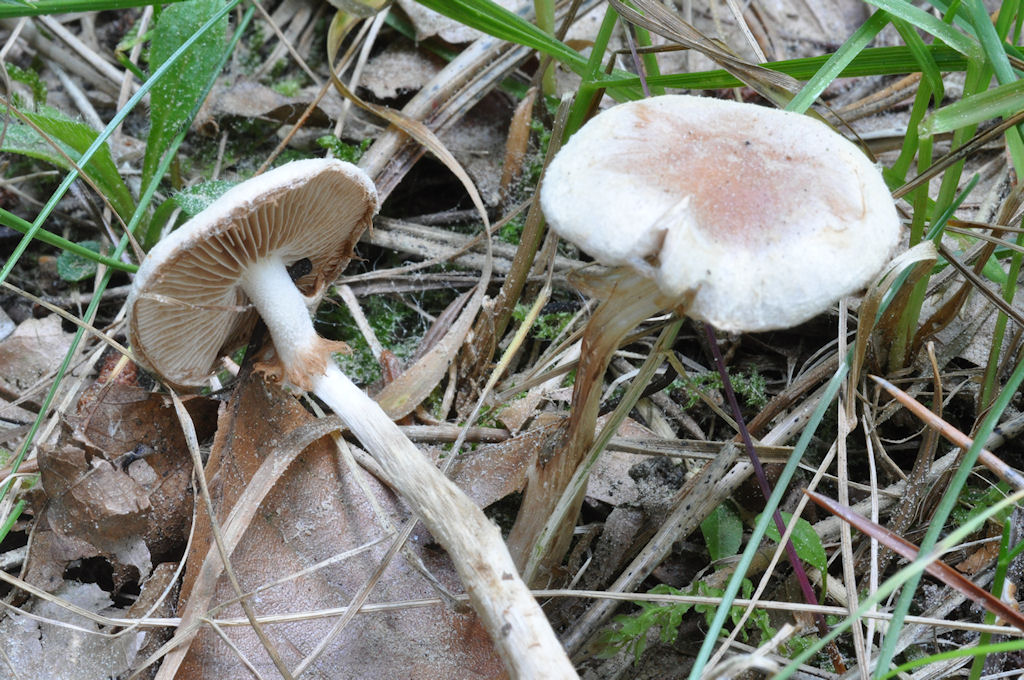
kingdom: Fungi
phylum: Basidiomycota
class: Agaricomycetes
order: Agaricales
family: Hymenogastraceae
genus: Hebeloma
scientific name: Hebeloma mesophaeum
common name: lerbrun tåreblad
